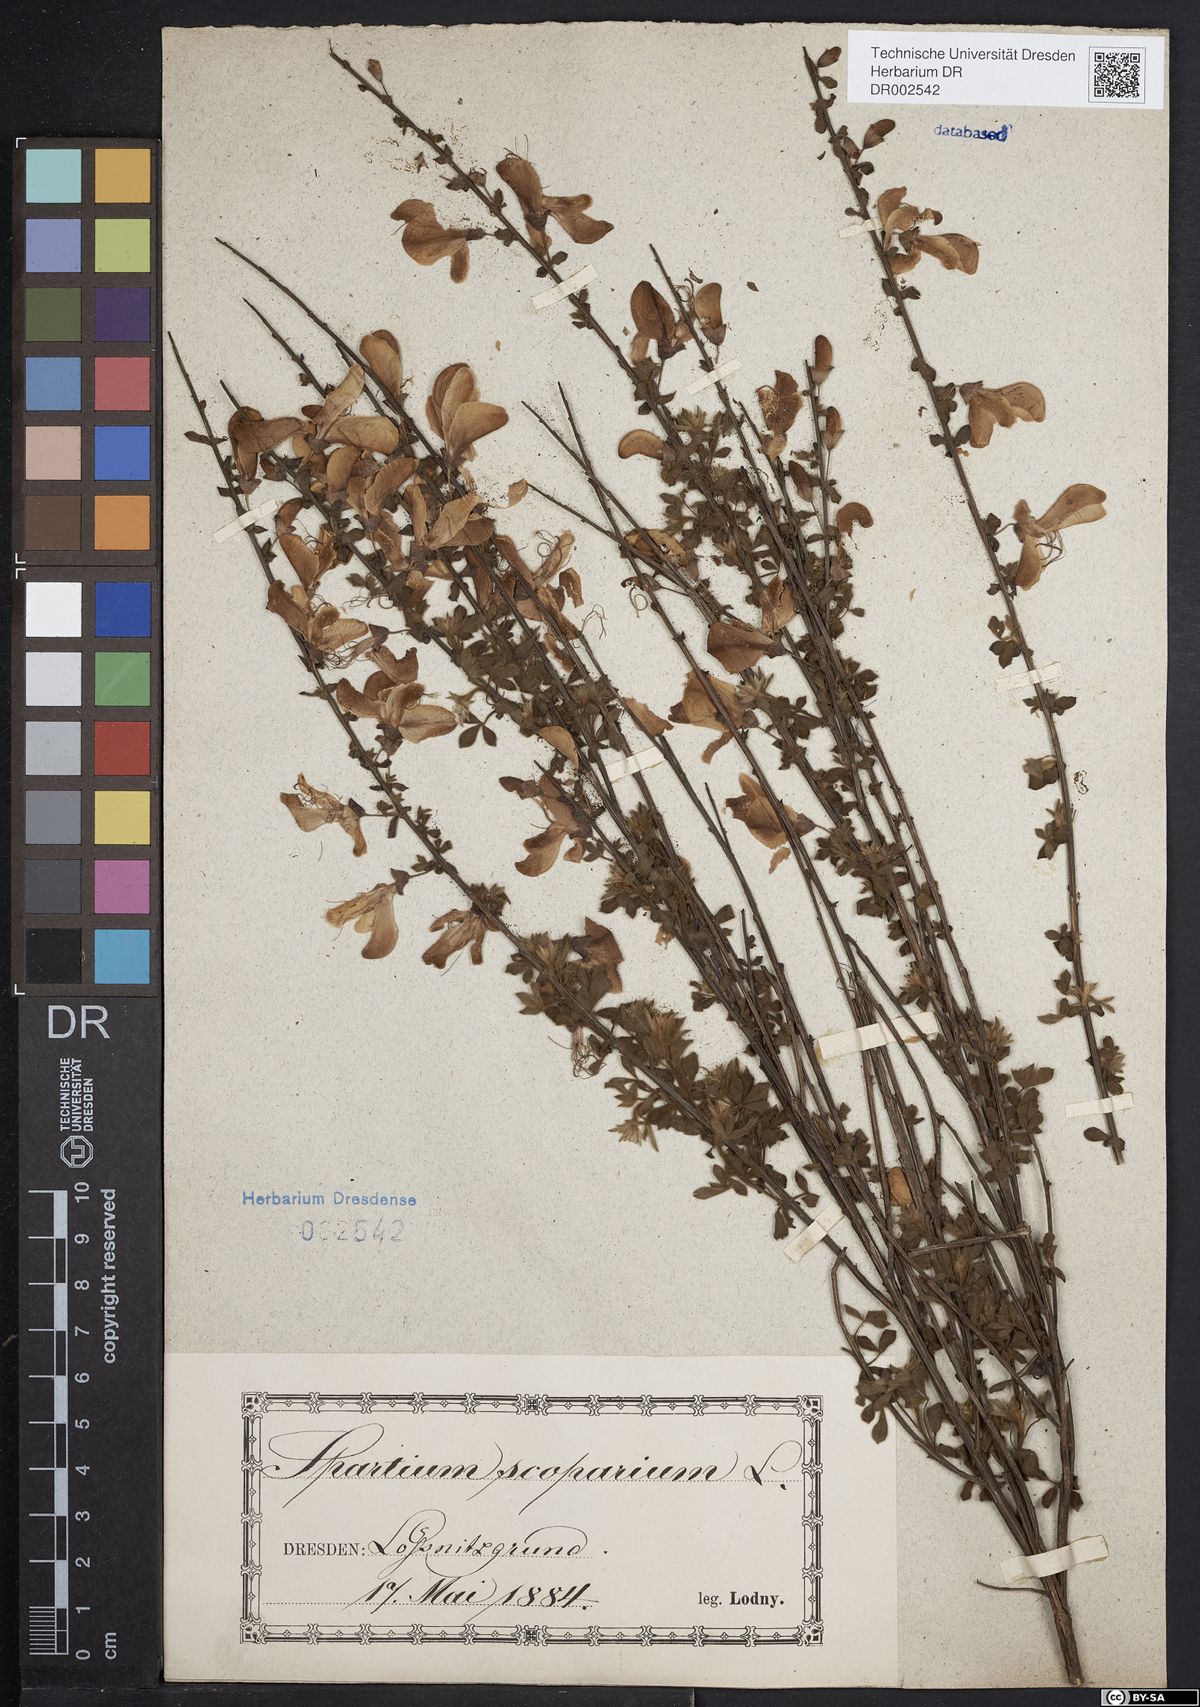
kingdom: Plantae
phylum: Tracheophyta
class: Magnoliopsida
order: Fabales
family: Fabaceae
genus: Cytisus
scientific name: Cytisus scoparius
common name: Scotch broom
